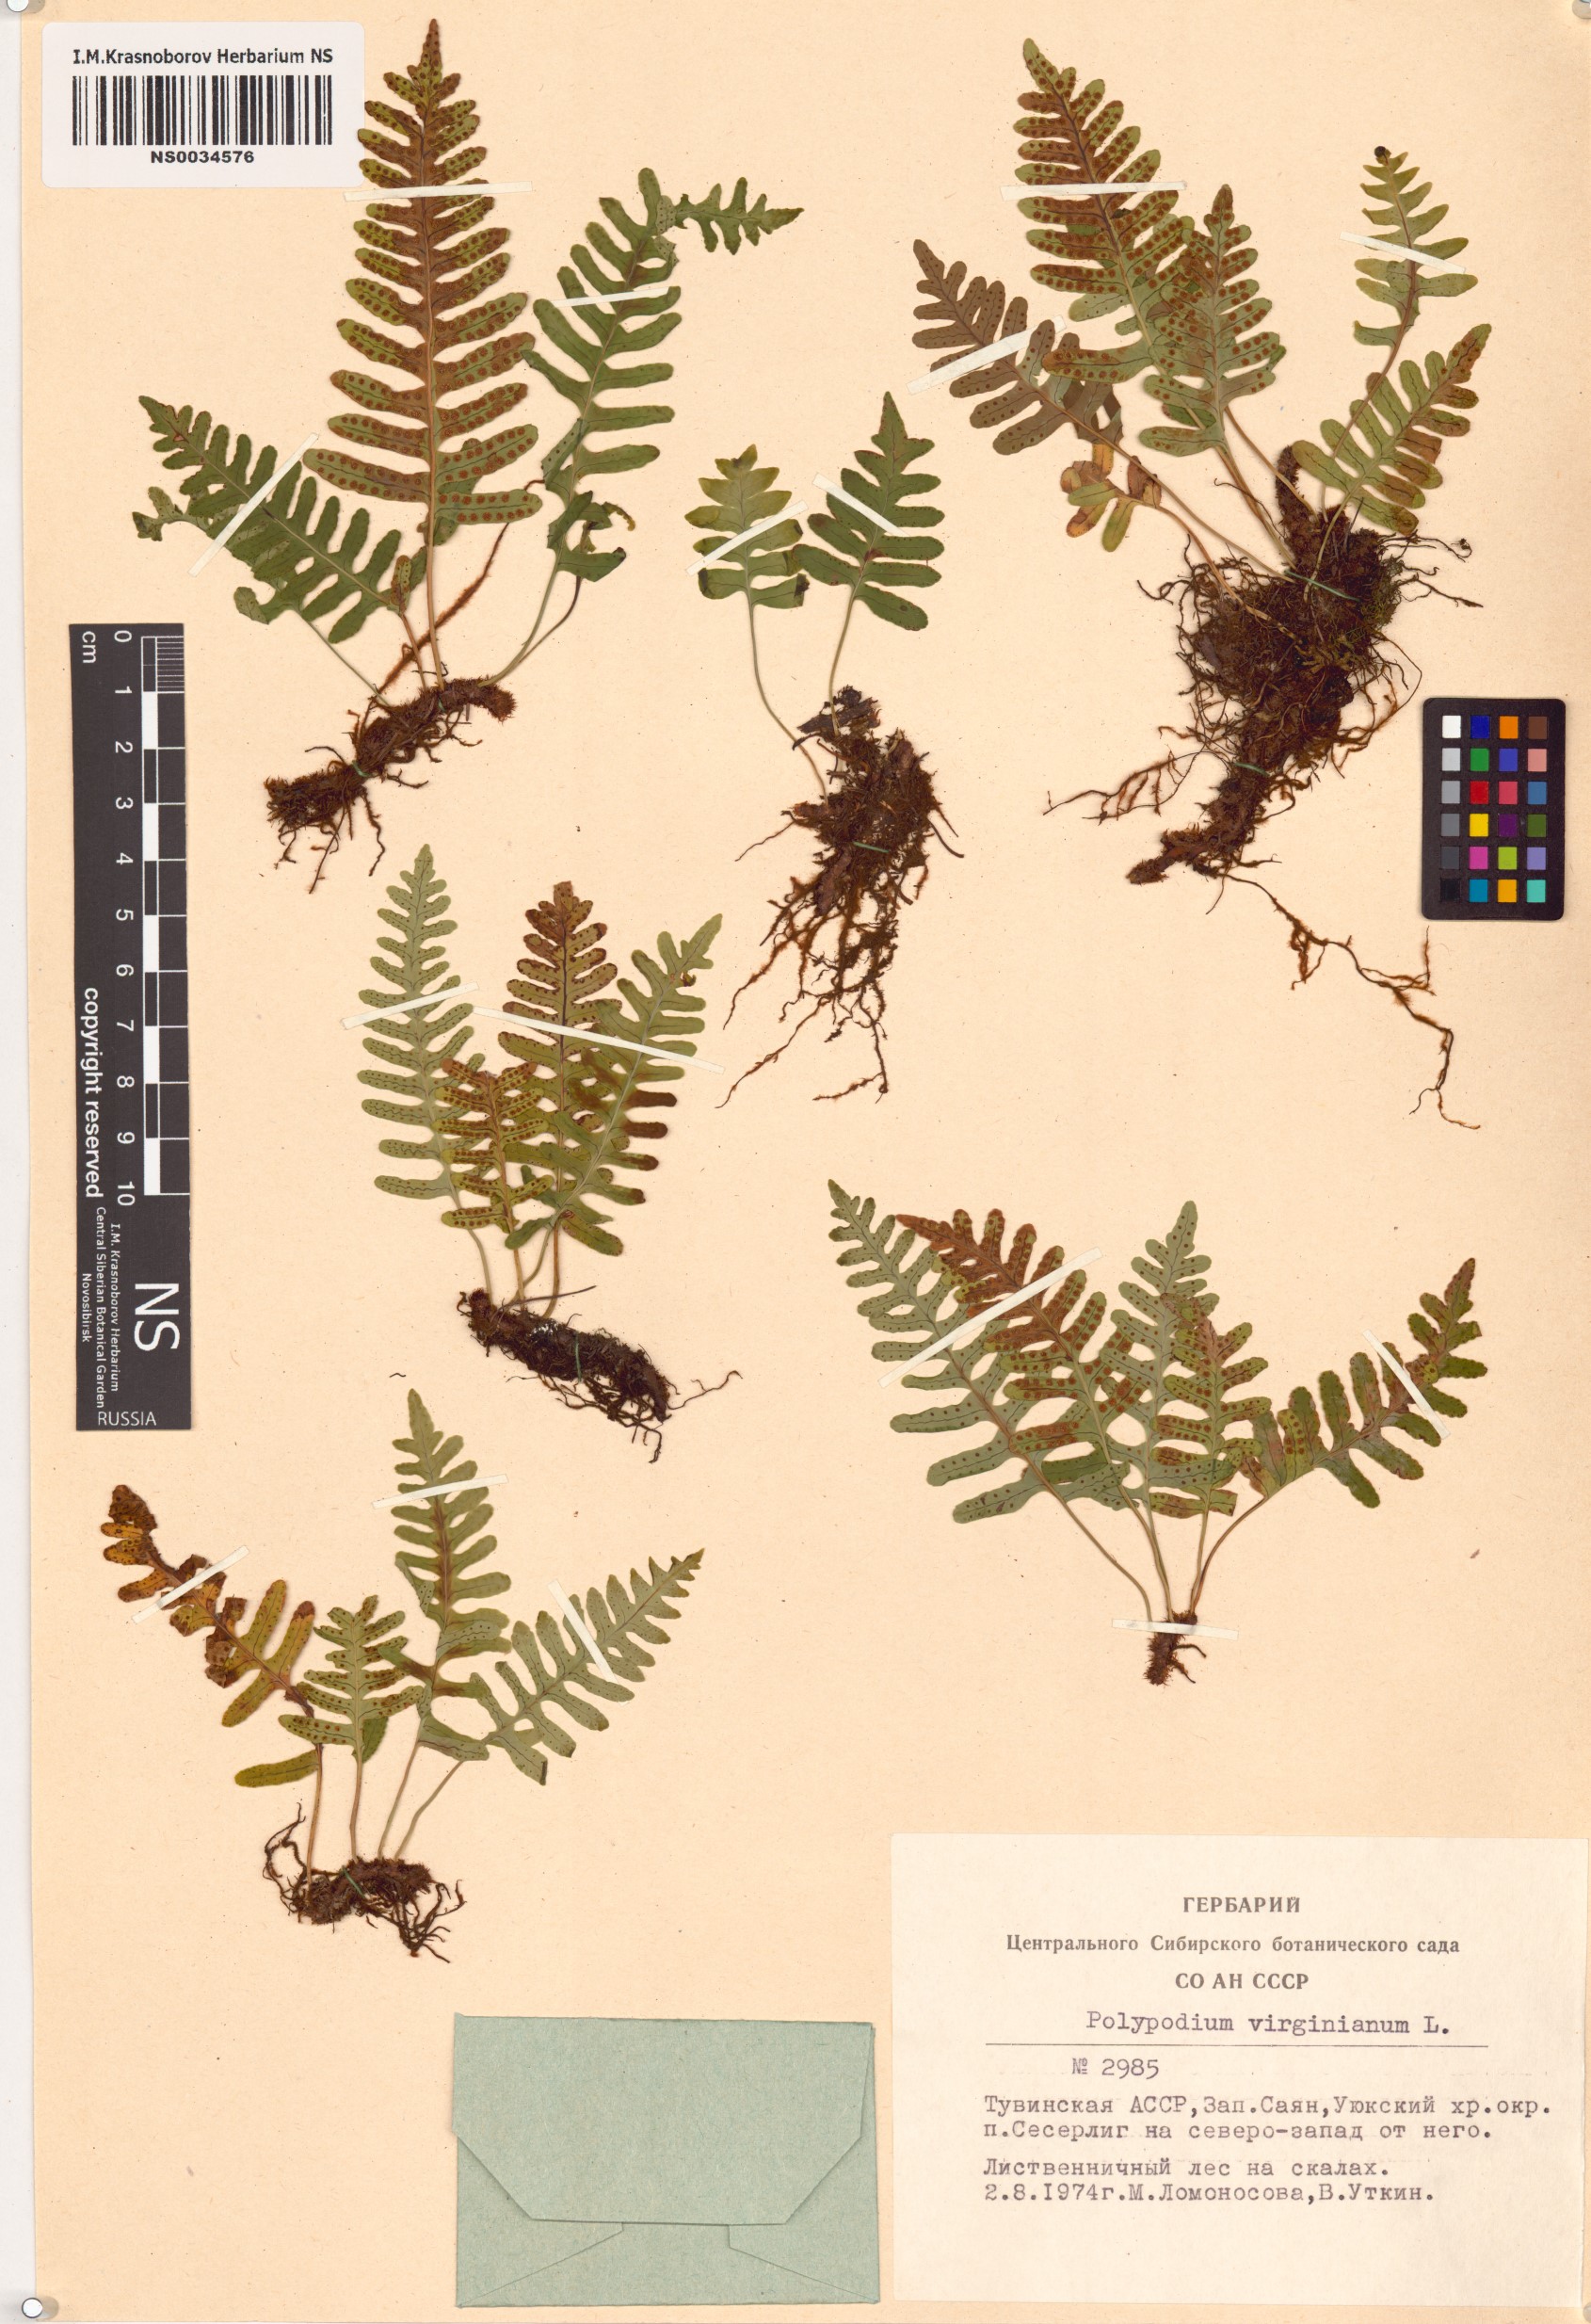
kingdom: Plantae
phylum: Tracheophyta
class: Polypodiopsida
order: Polypodiales
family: Polypodiaceae
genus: Polypodium
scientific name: Polypodium virginianum
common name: American wall fern
